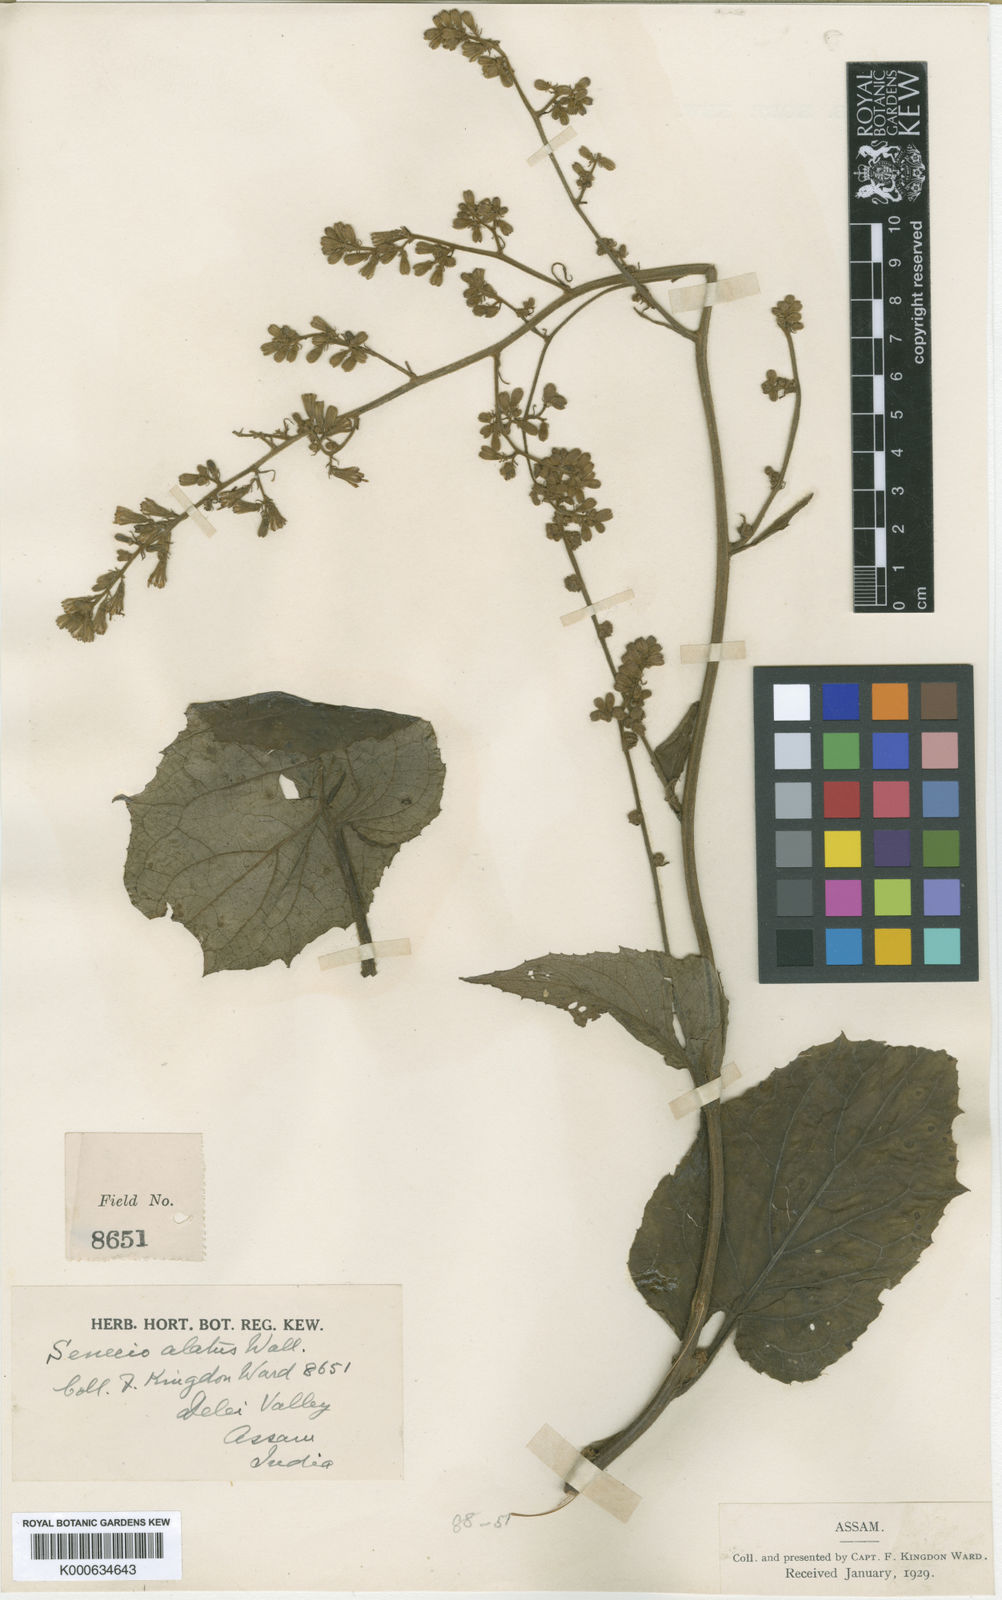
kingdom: Plantae
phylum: Tracheophyta
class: Magnoliopsida
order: Asterales
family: Asteraceae
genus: Synotis
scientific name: Synotis ainsliaeifolia
